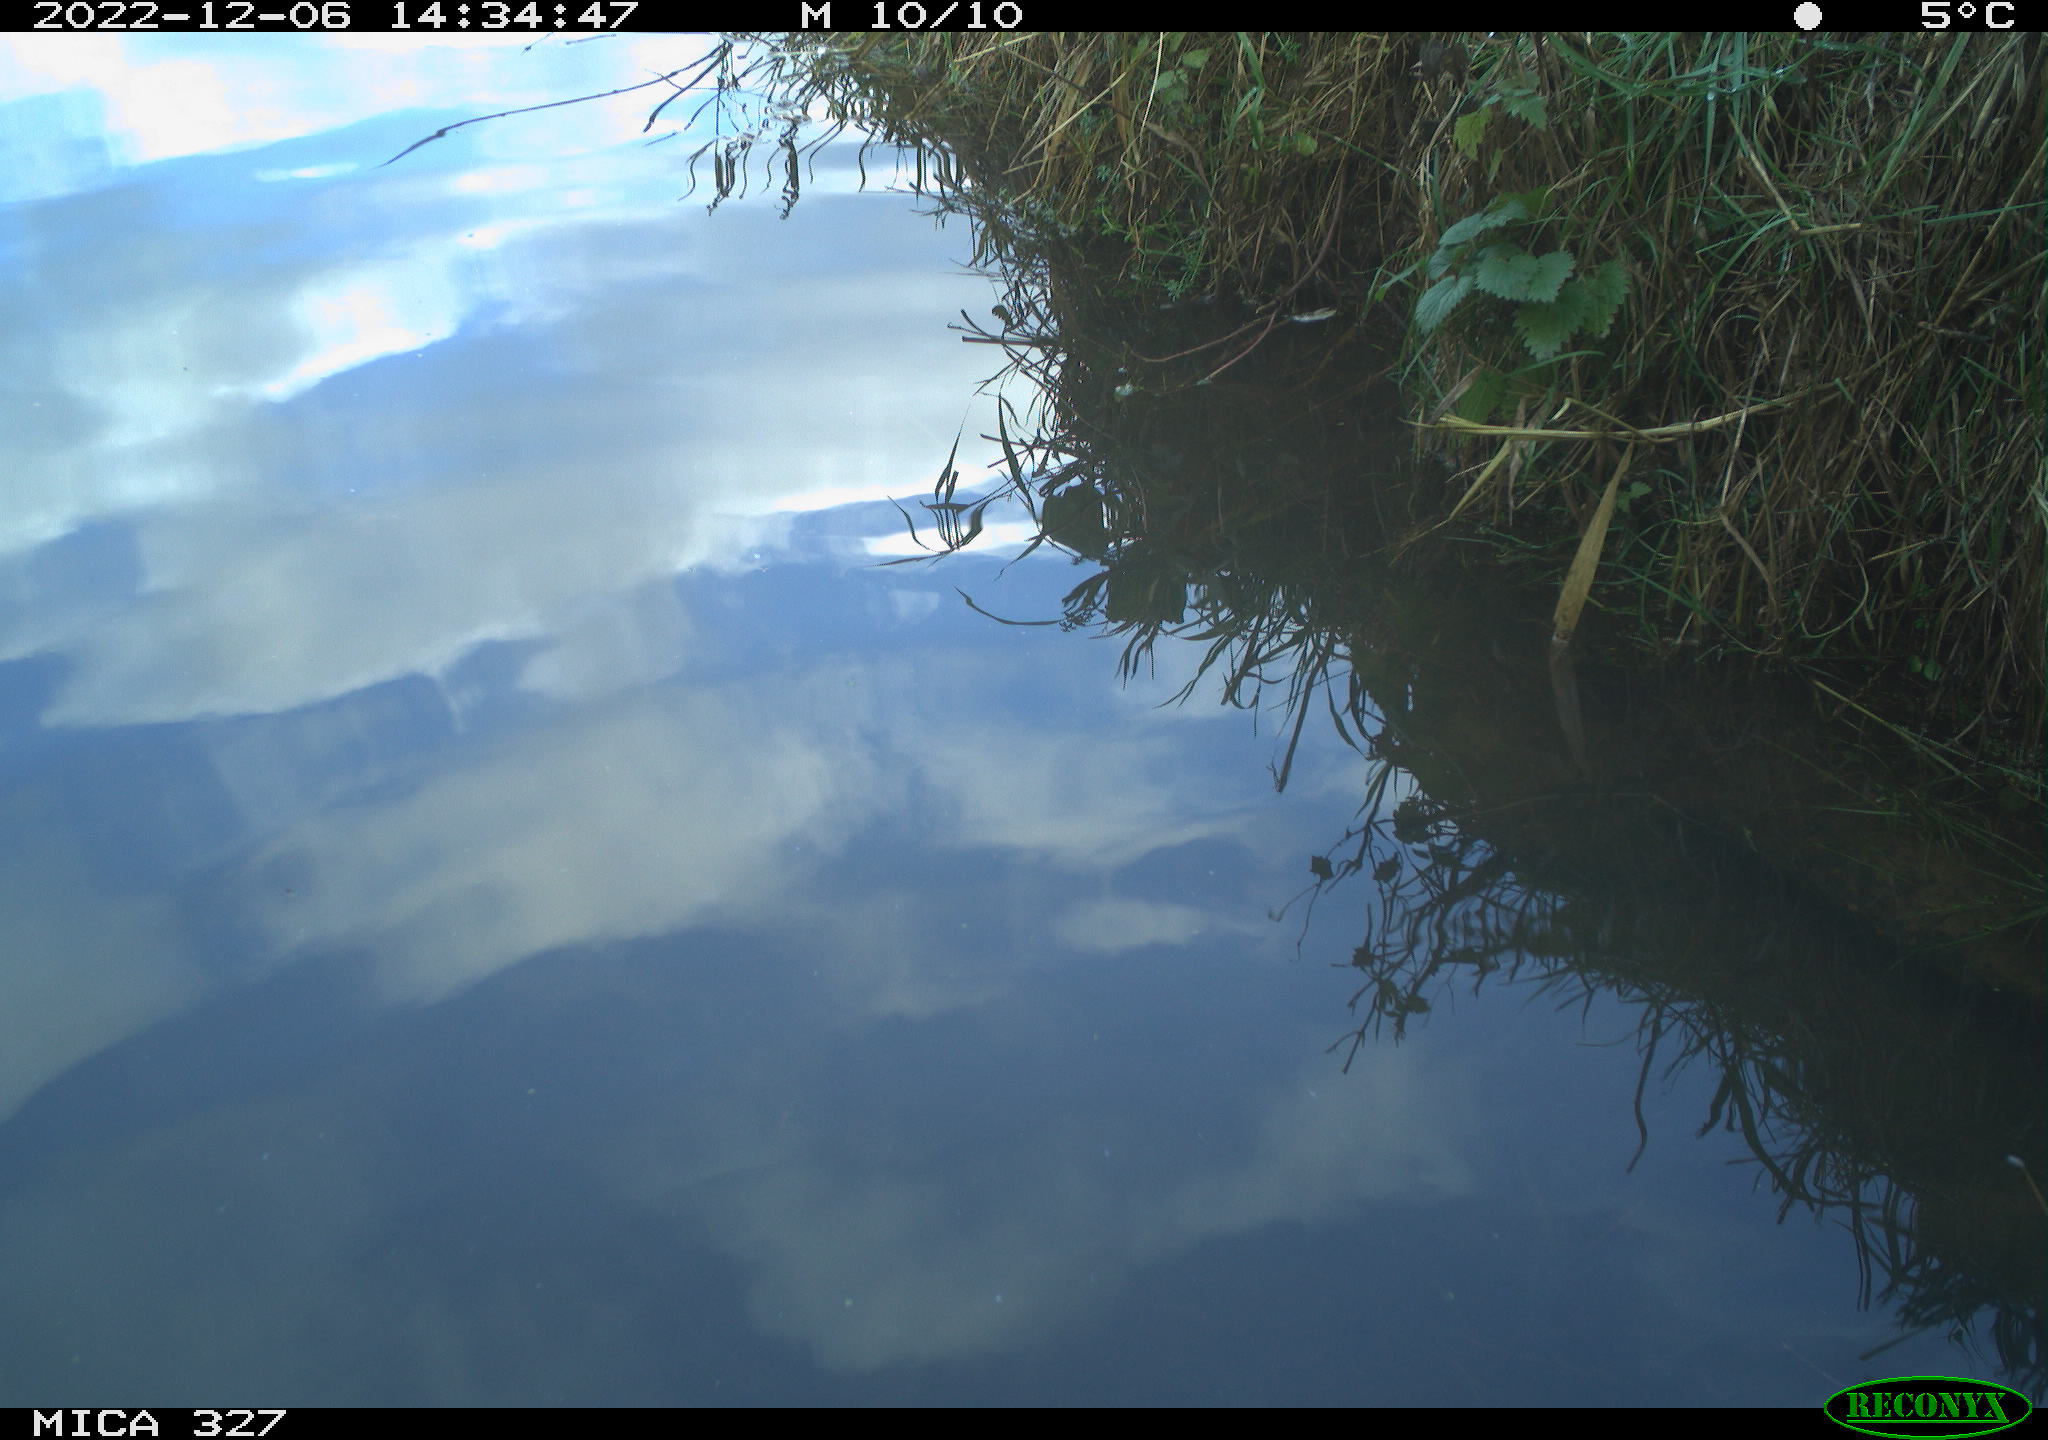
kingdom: Animalia
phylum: Chordata
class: Aves
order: Gruiformes
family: Rallidae
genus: Gallinula
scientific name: Gallinula chloropus
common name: Common moorhen
